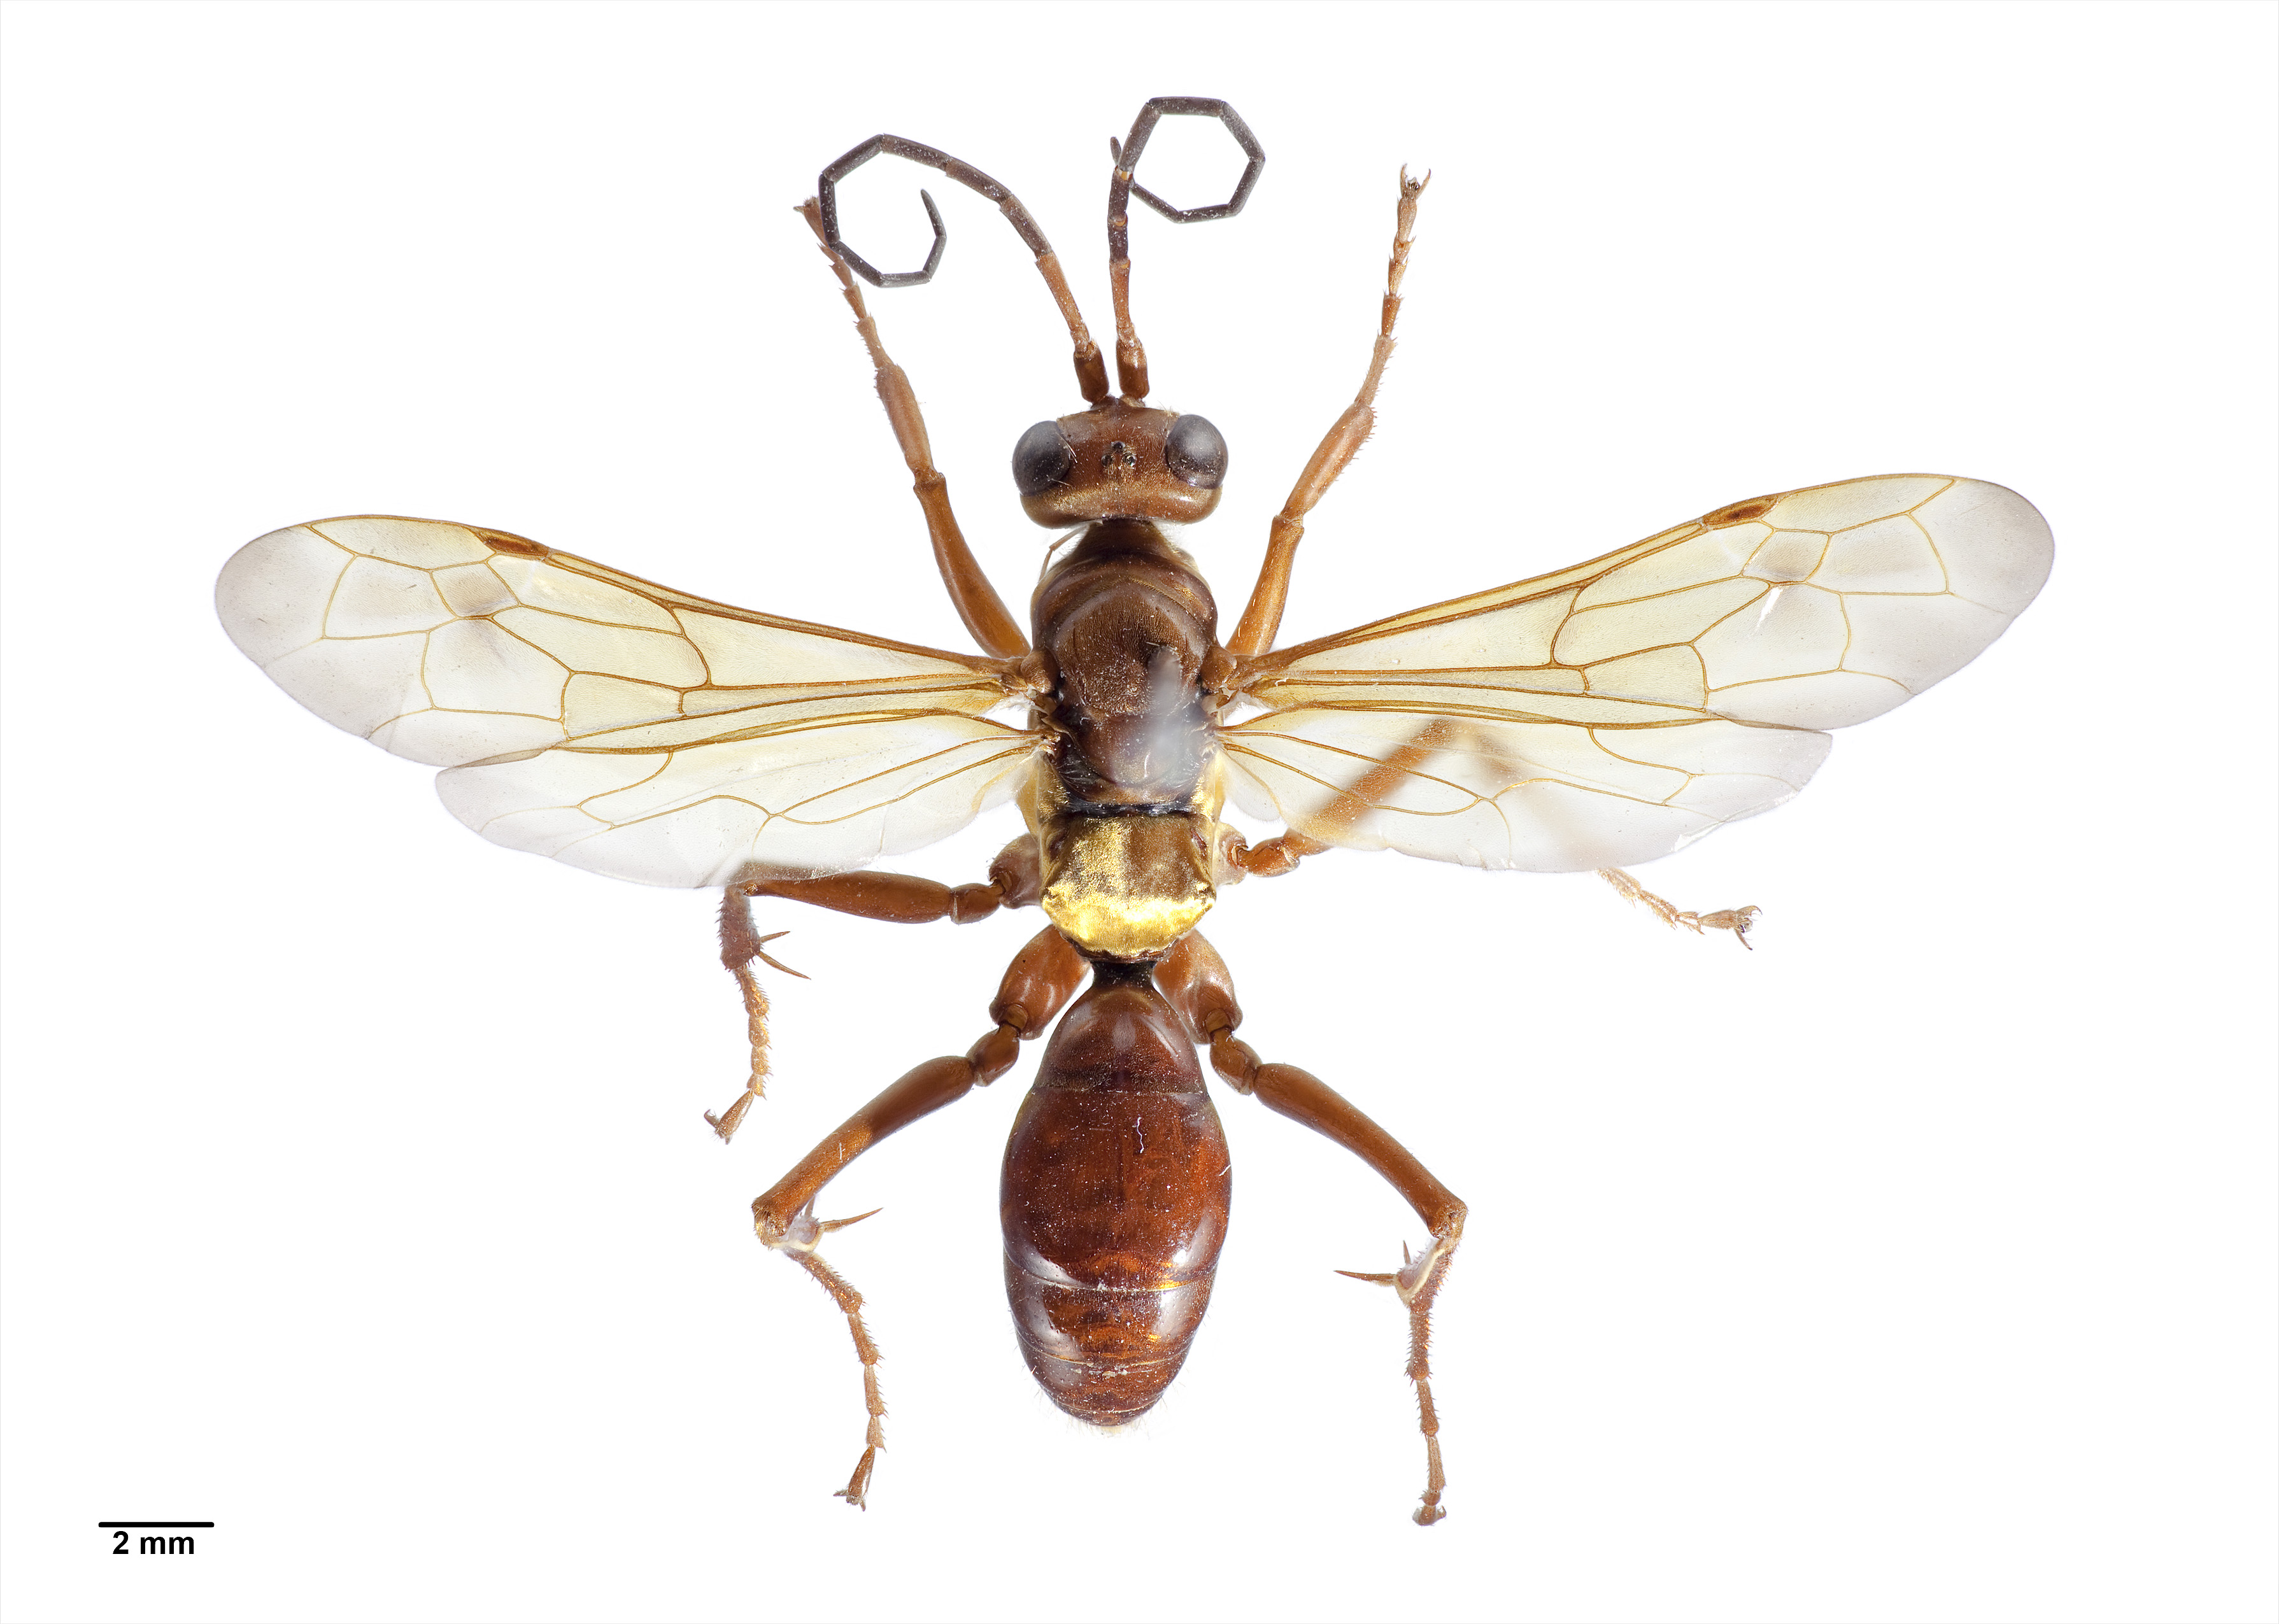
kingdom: Animalia
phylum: Arthropoda
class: Insecta
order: Hymenoptera
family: Pompilidae
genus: Sphictostethus
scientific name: Sphictostethus nitidus
